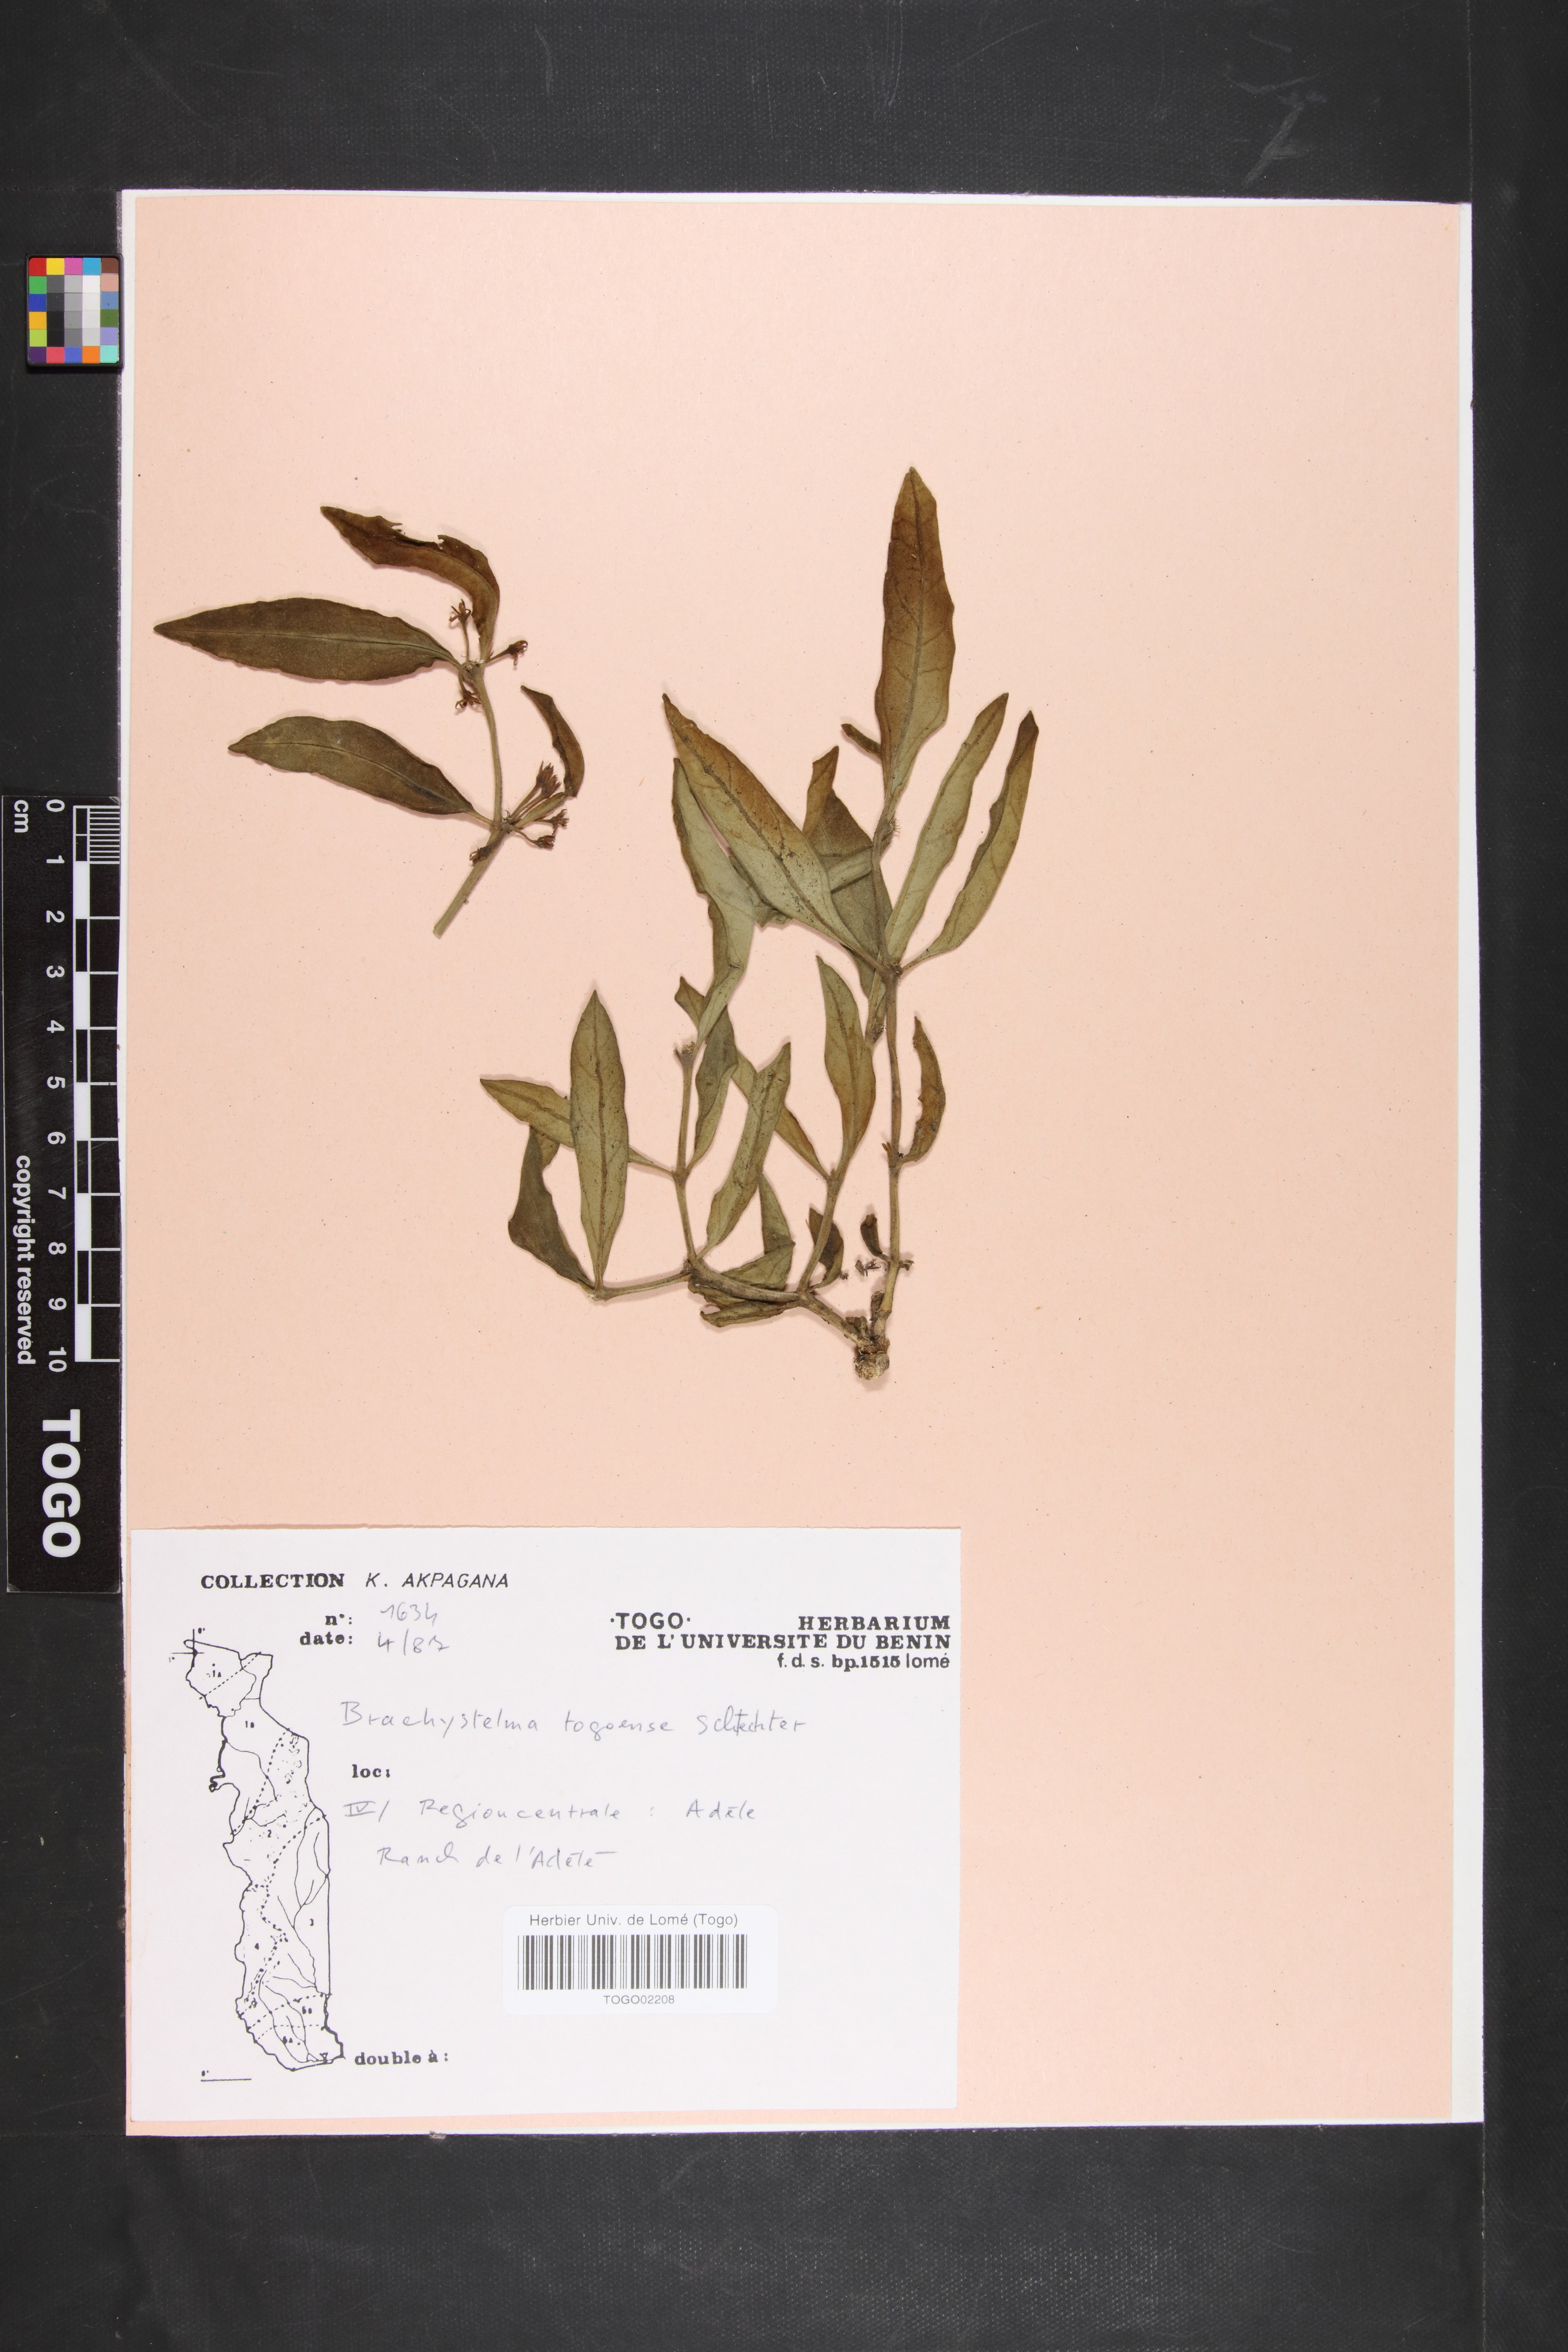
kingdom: Plantae
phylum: Tracheophyta
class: Magnoliopsida
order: Gentianales
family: Apocynaceae
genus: Ceropegia
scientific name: Ceropegia togoensis
